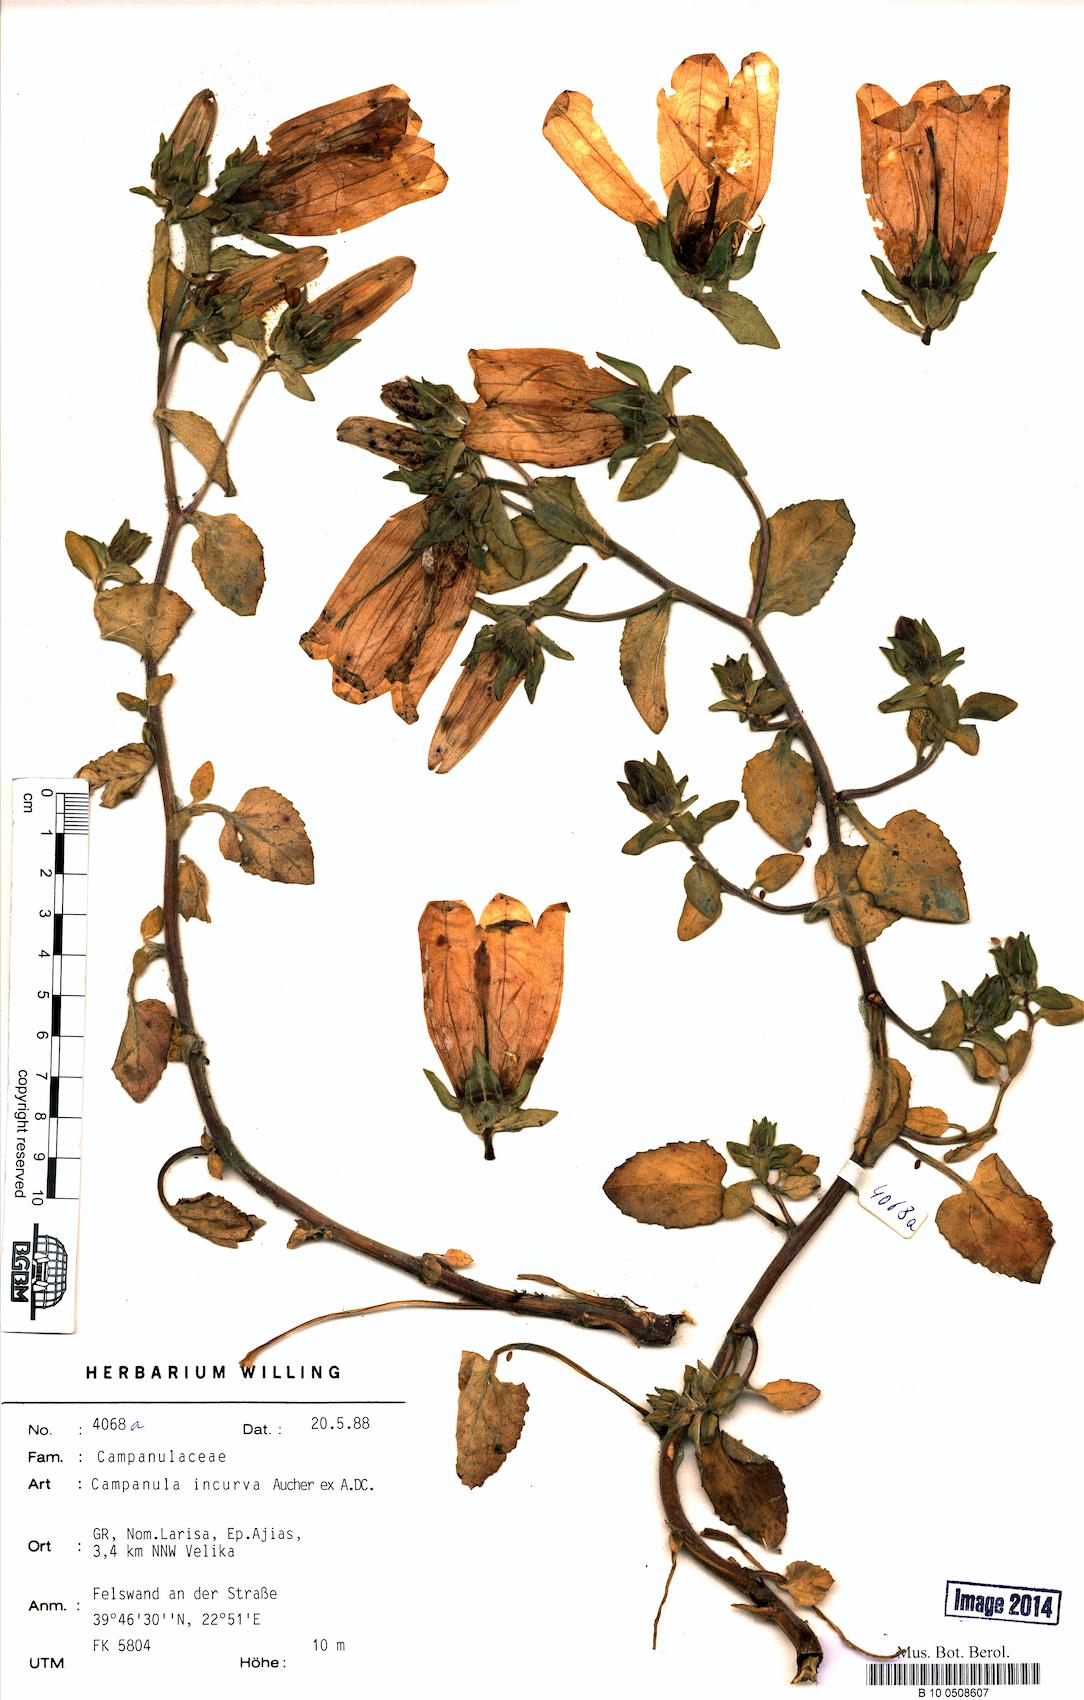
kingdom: Plantae
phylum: Tracheophyta
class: Magnoliopsida
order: Asterales
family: Campanulaceae
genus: Campanula
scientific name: Campanula incurva
